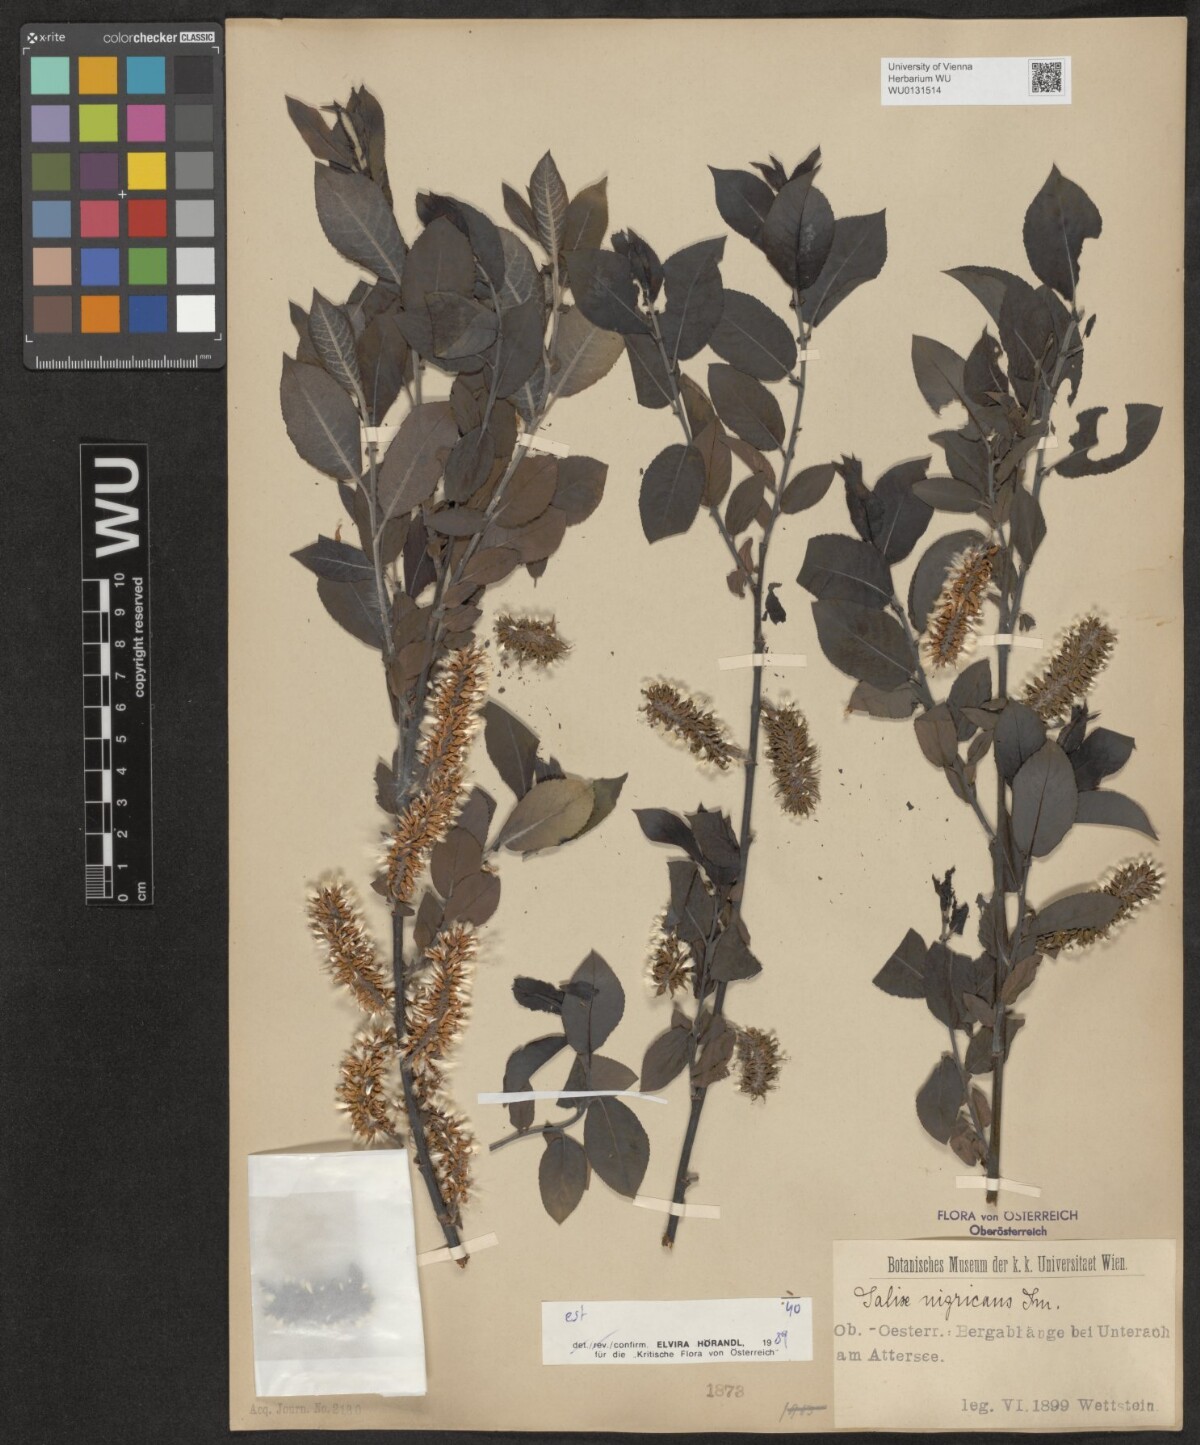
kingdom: Plantae
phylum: Tracheophyta
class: Magnoliopsida
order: Malpighiales
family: Salicaceae
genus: Salix
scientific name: Salix myrsinifolia
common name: Dark-leaved willow
